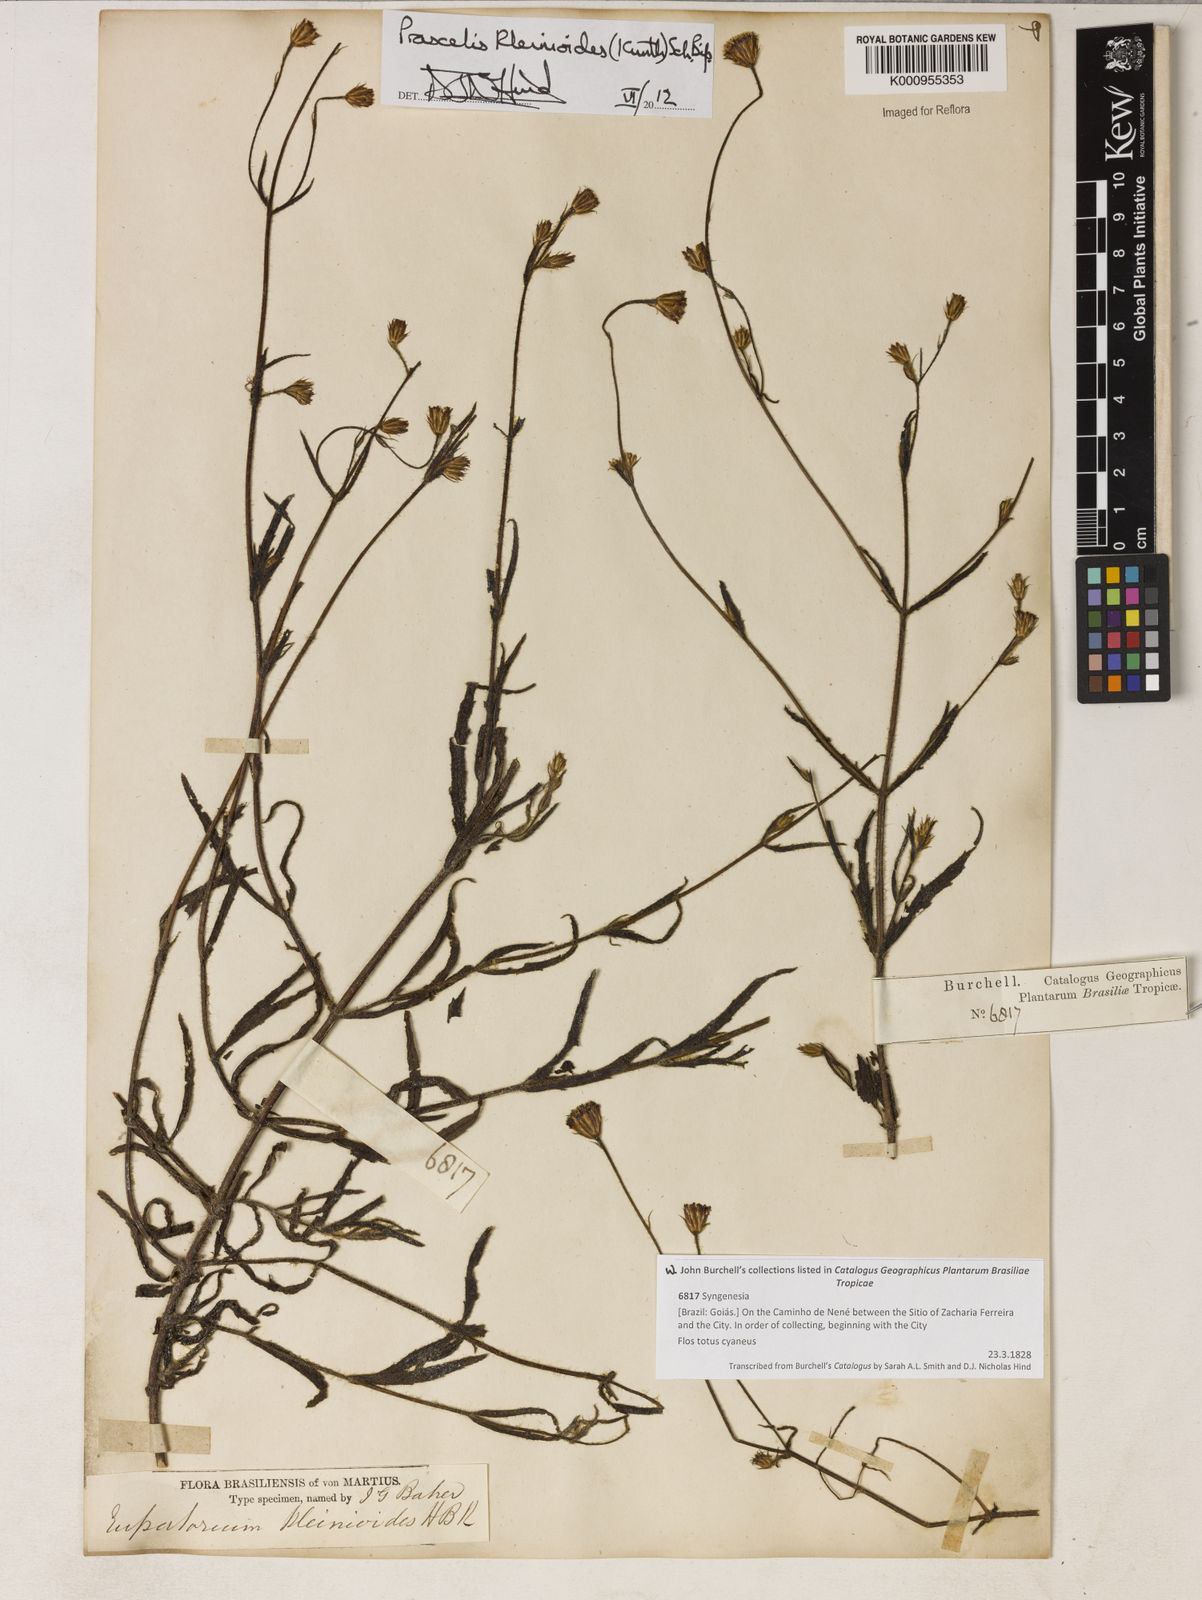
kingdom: Plantae
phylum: Tracheophyta
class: Magnoliopsida
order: Asterales
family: Asteraceae
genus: Praxelis
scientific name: Praxelis kleinioides
